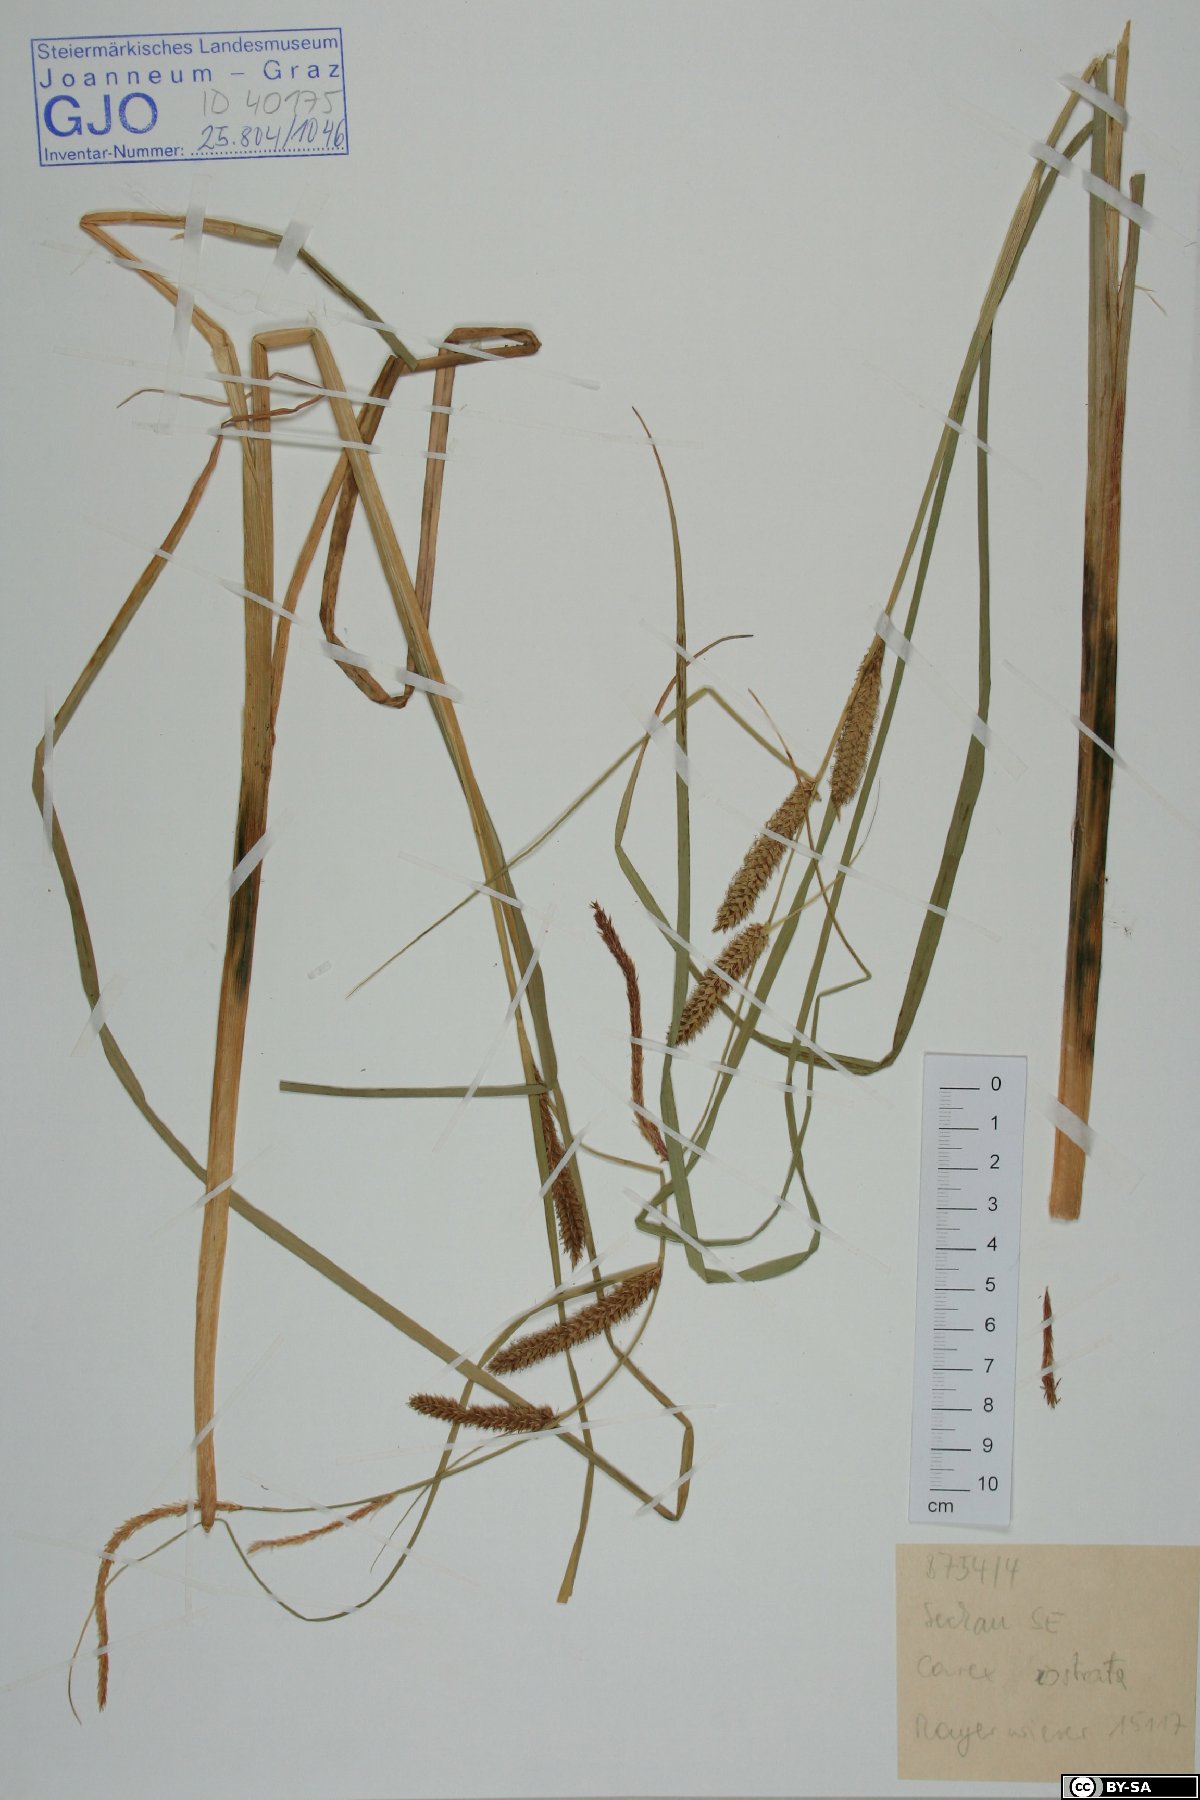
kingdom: Plantae
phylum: Tracheophyta
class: Liliopsida
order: Poales
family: Cyperaceae
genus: Carex
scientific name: Carex rostrata
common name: Bottle sedge
